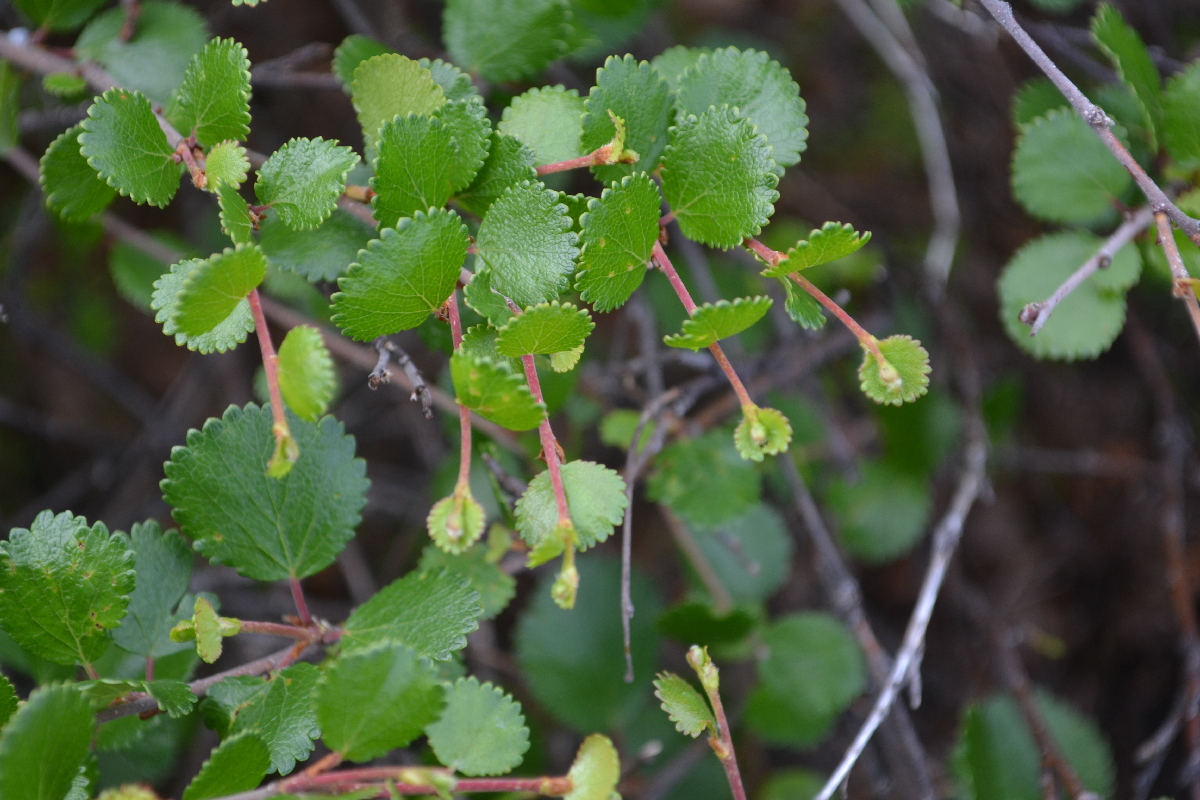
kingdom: Plantae
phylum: Tracheophyta
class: Magnoliopsida
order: Fagales
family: Betulaceae
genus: Betula
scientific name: Betula nana
